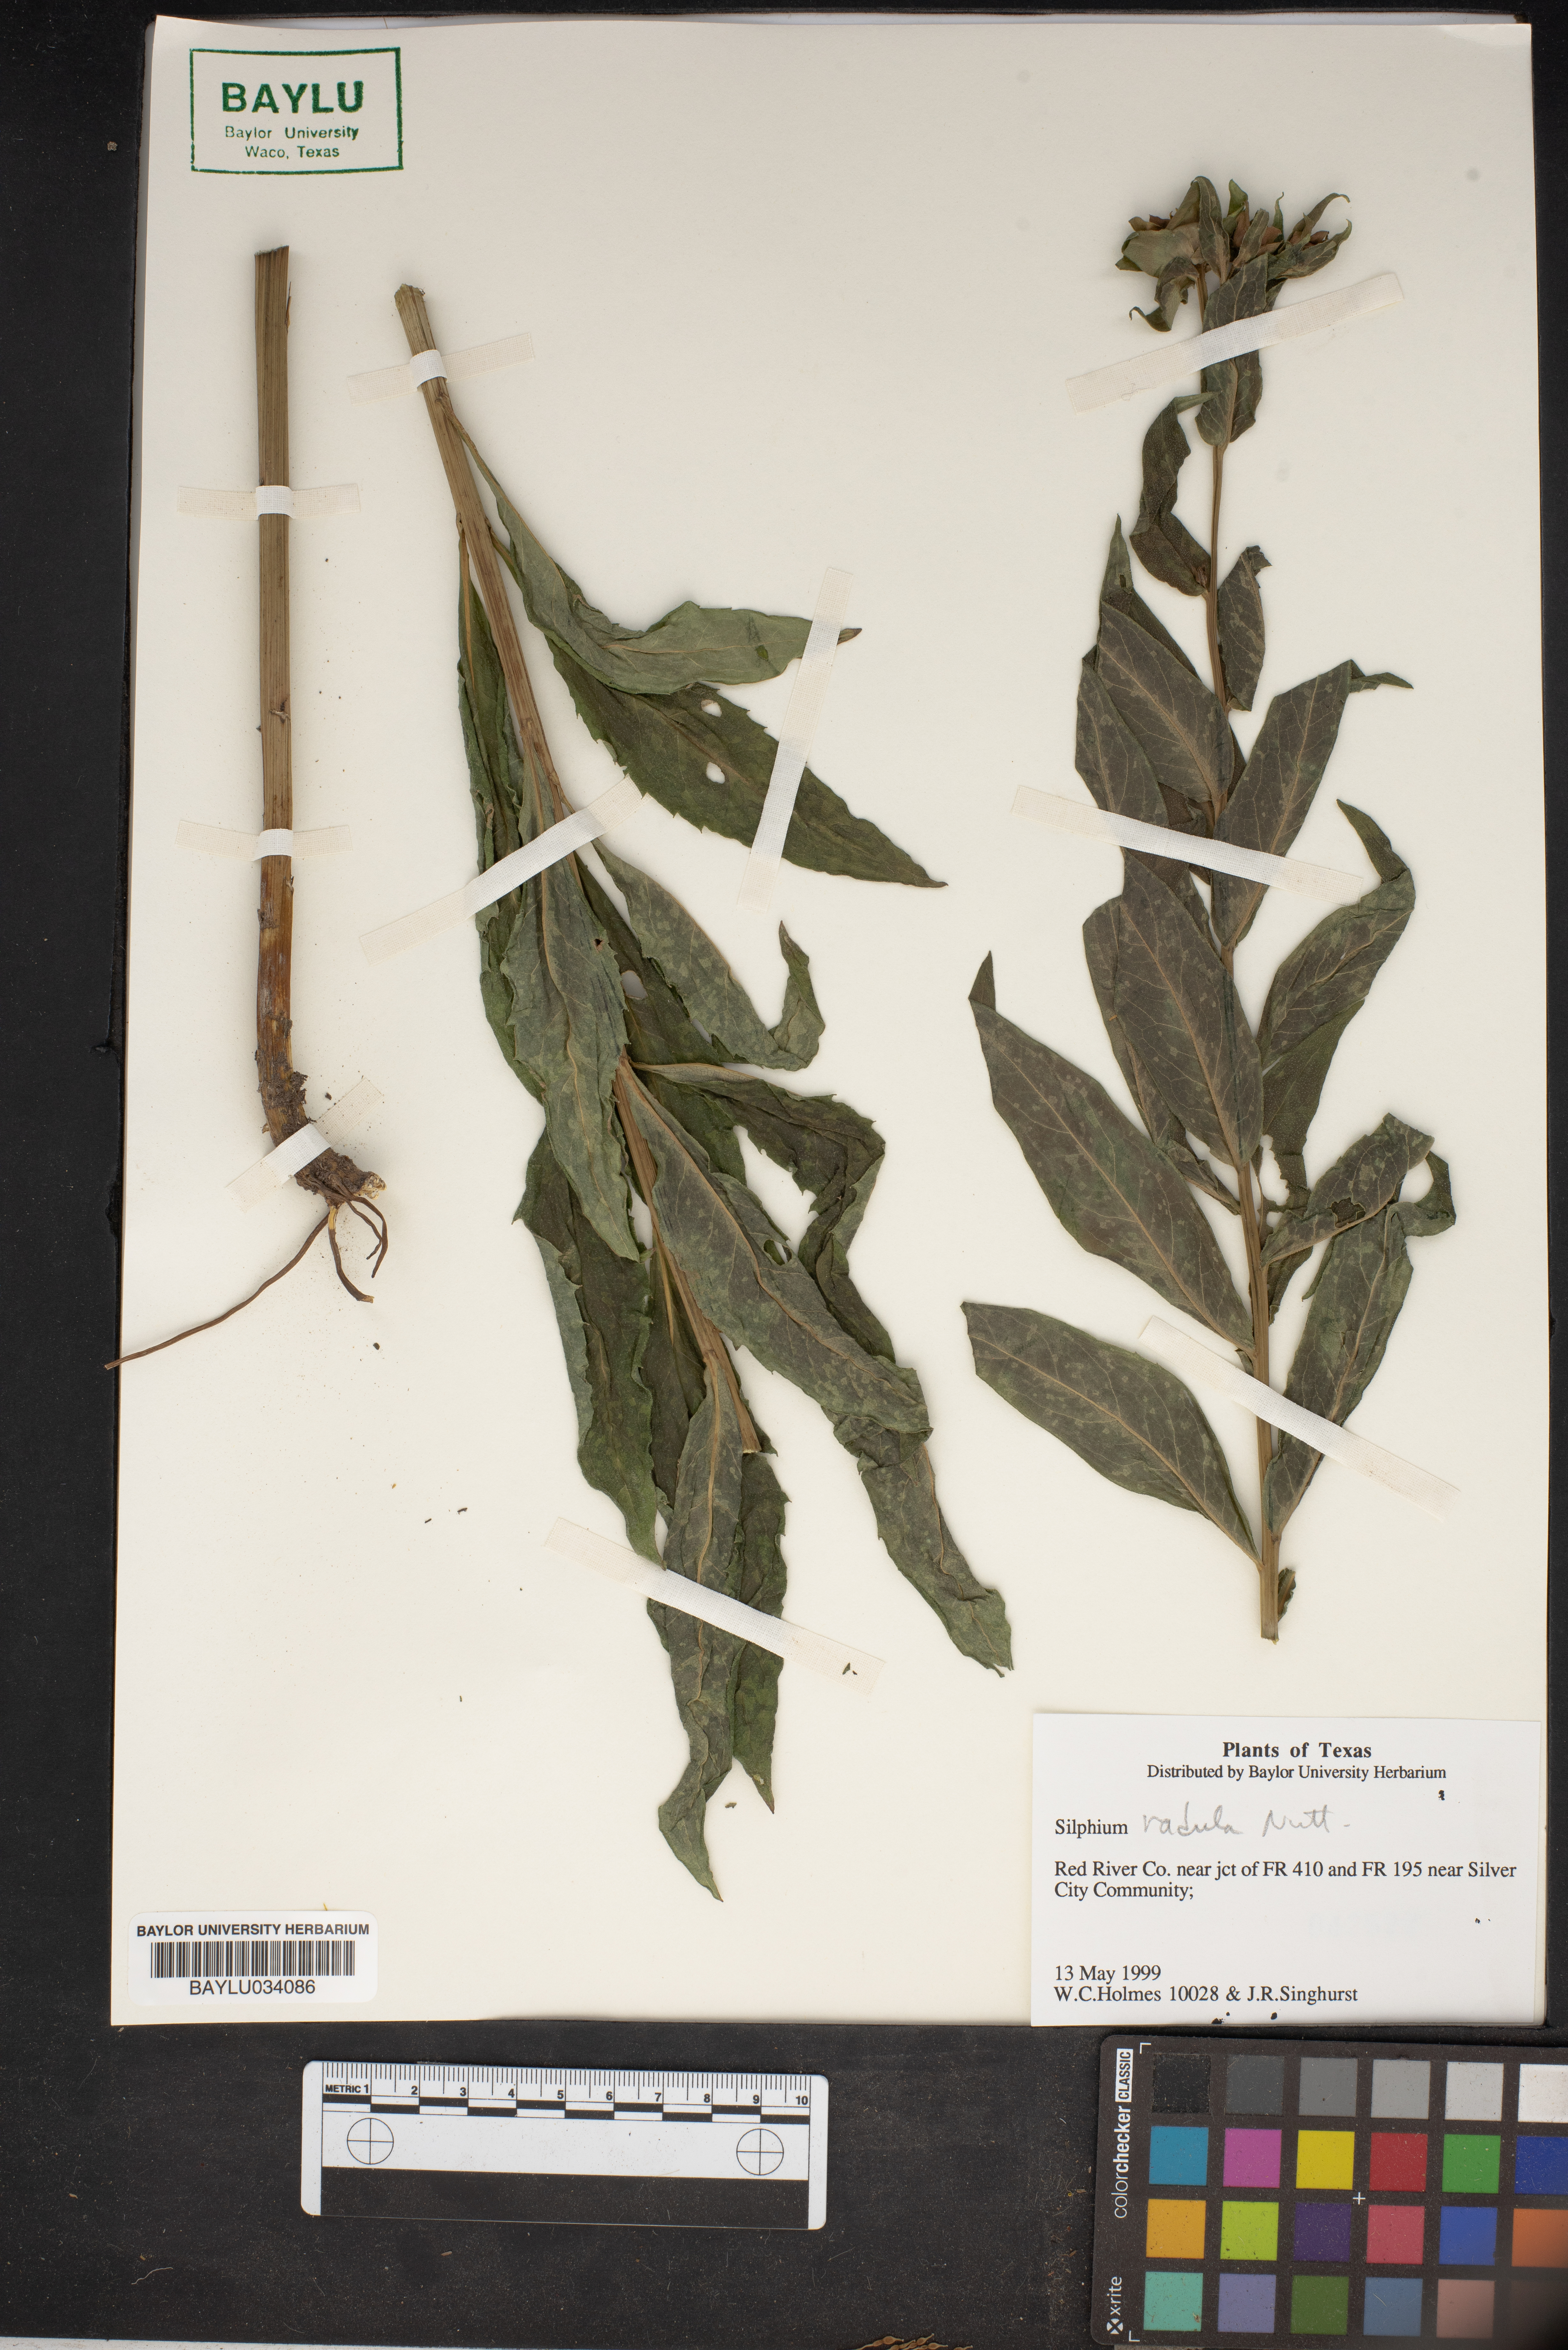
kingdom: Plantae
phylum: Tracheophyta
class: Magnoliopsida
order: Asterales
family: Asteraceae
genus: Silphium
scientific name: Silphium radula
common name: Roughleaf rosinweed
